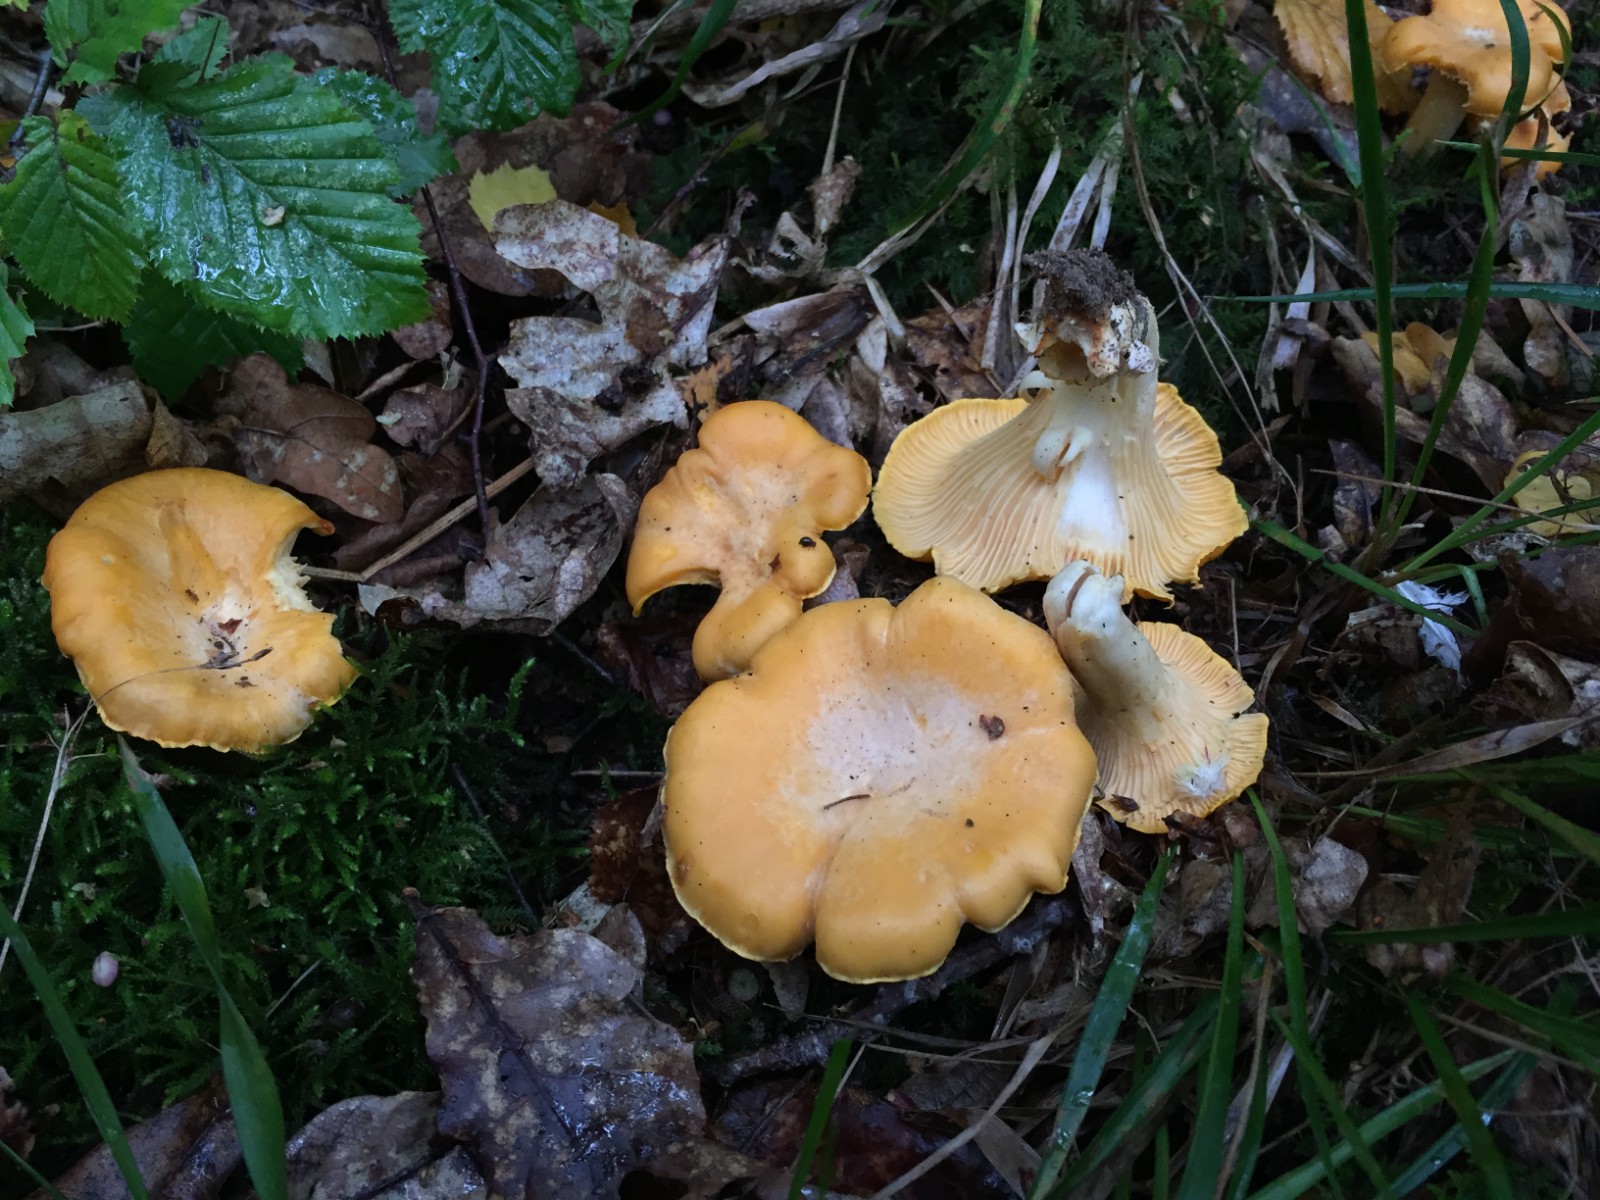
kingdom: Fungi
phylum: Basidiomycota
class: Agaricomycetes
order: Cantharellales
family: Hydnaceae
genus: Cantharellus
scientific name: Cantharellus
